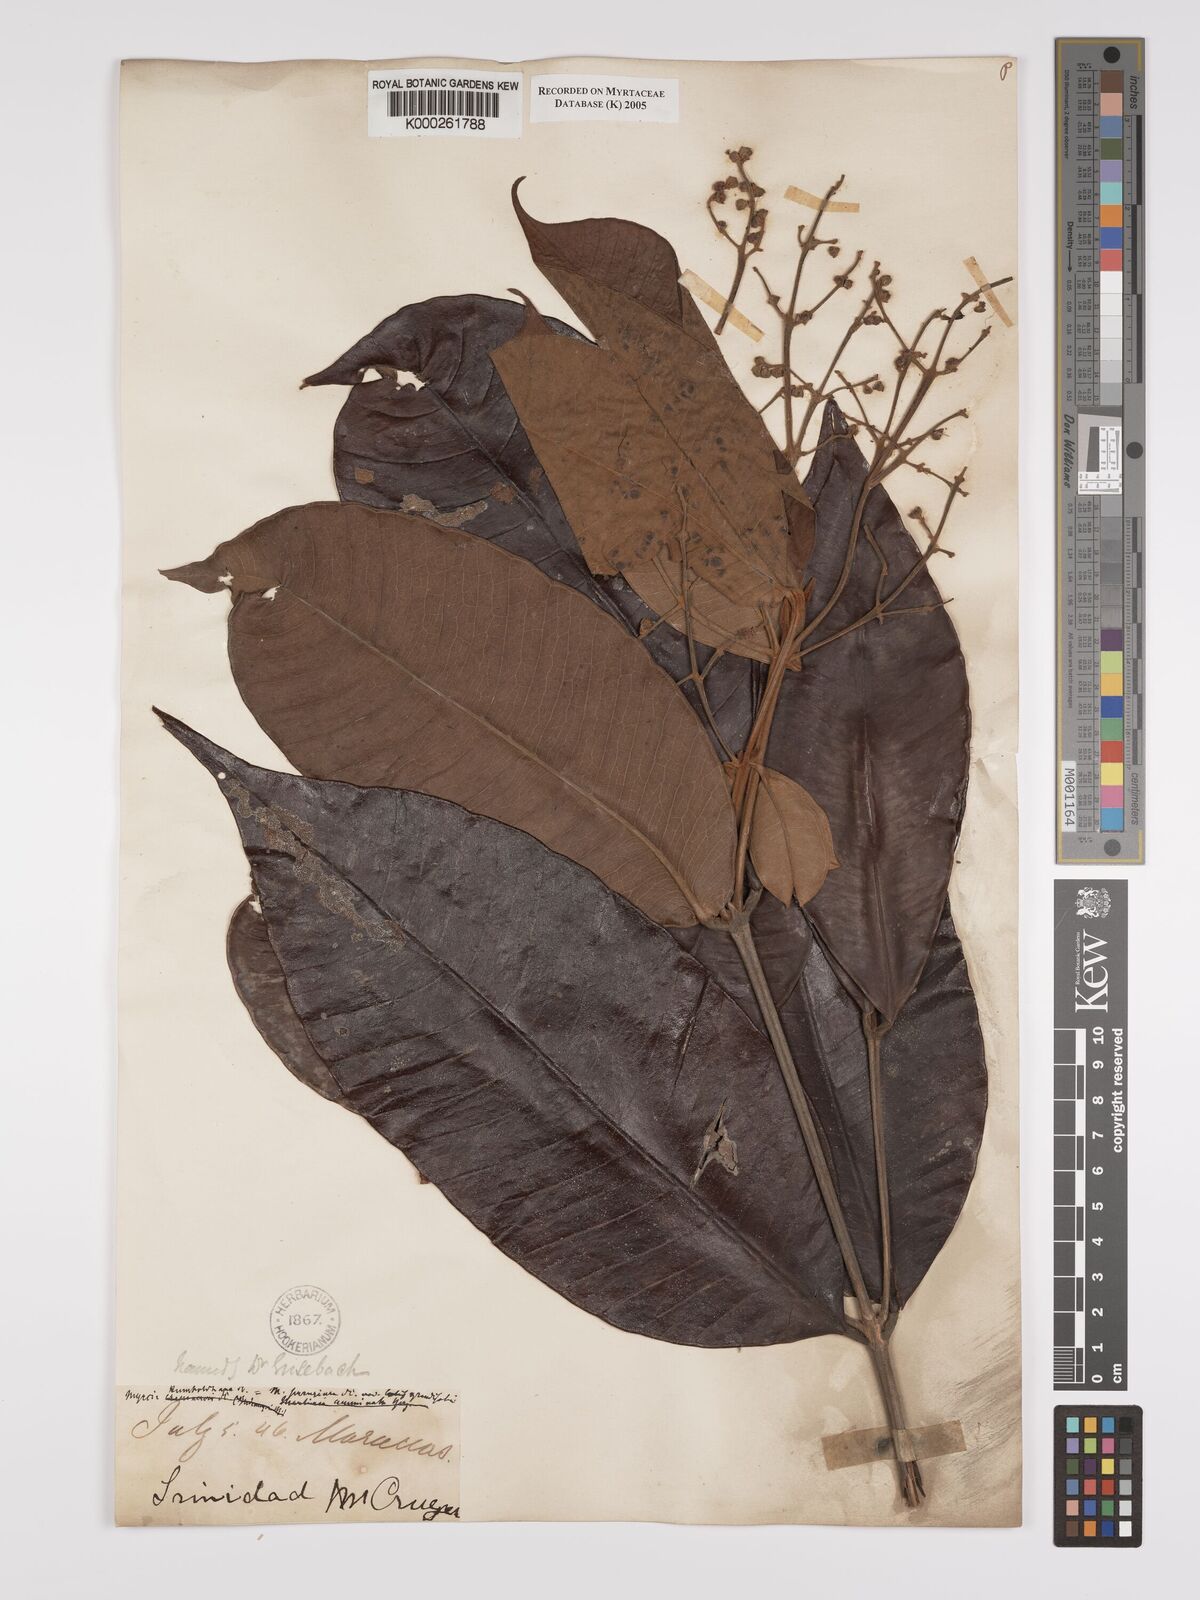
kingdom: Plantae
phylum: Tracheophyta
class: Magnoliopsida
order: Myrtales
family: Myrtaceae
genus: Myrcia
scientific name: Myrcia deflexa
